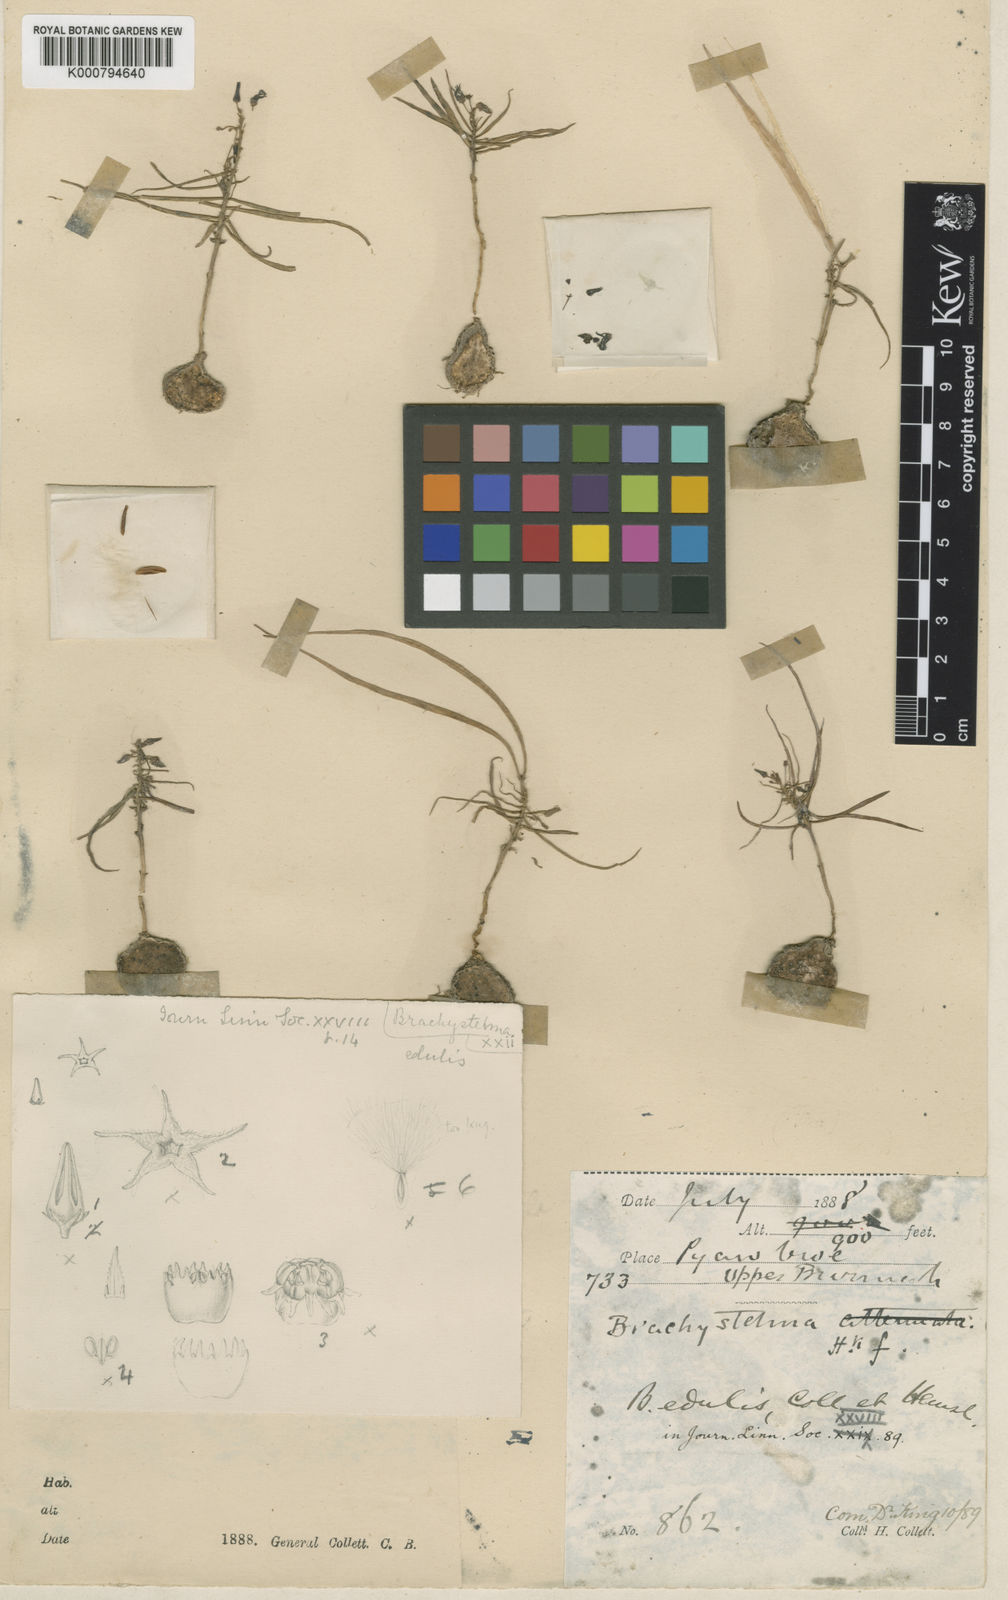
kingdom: Plantae
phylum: Tracheophyta
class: Magnoliopsida
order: Gentianales
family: Apocynaceae
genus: Ceropegia
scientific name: Ceropegia edulissima
